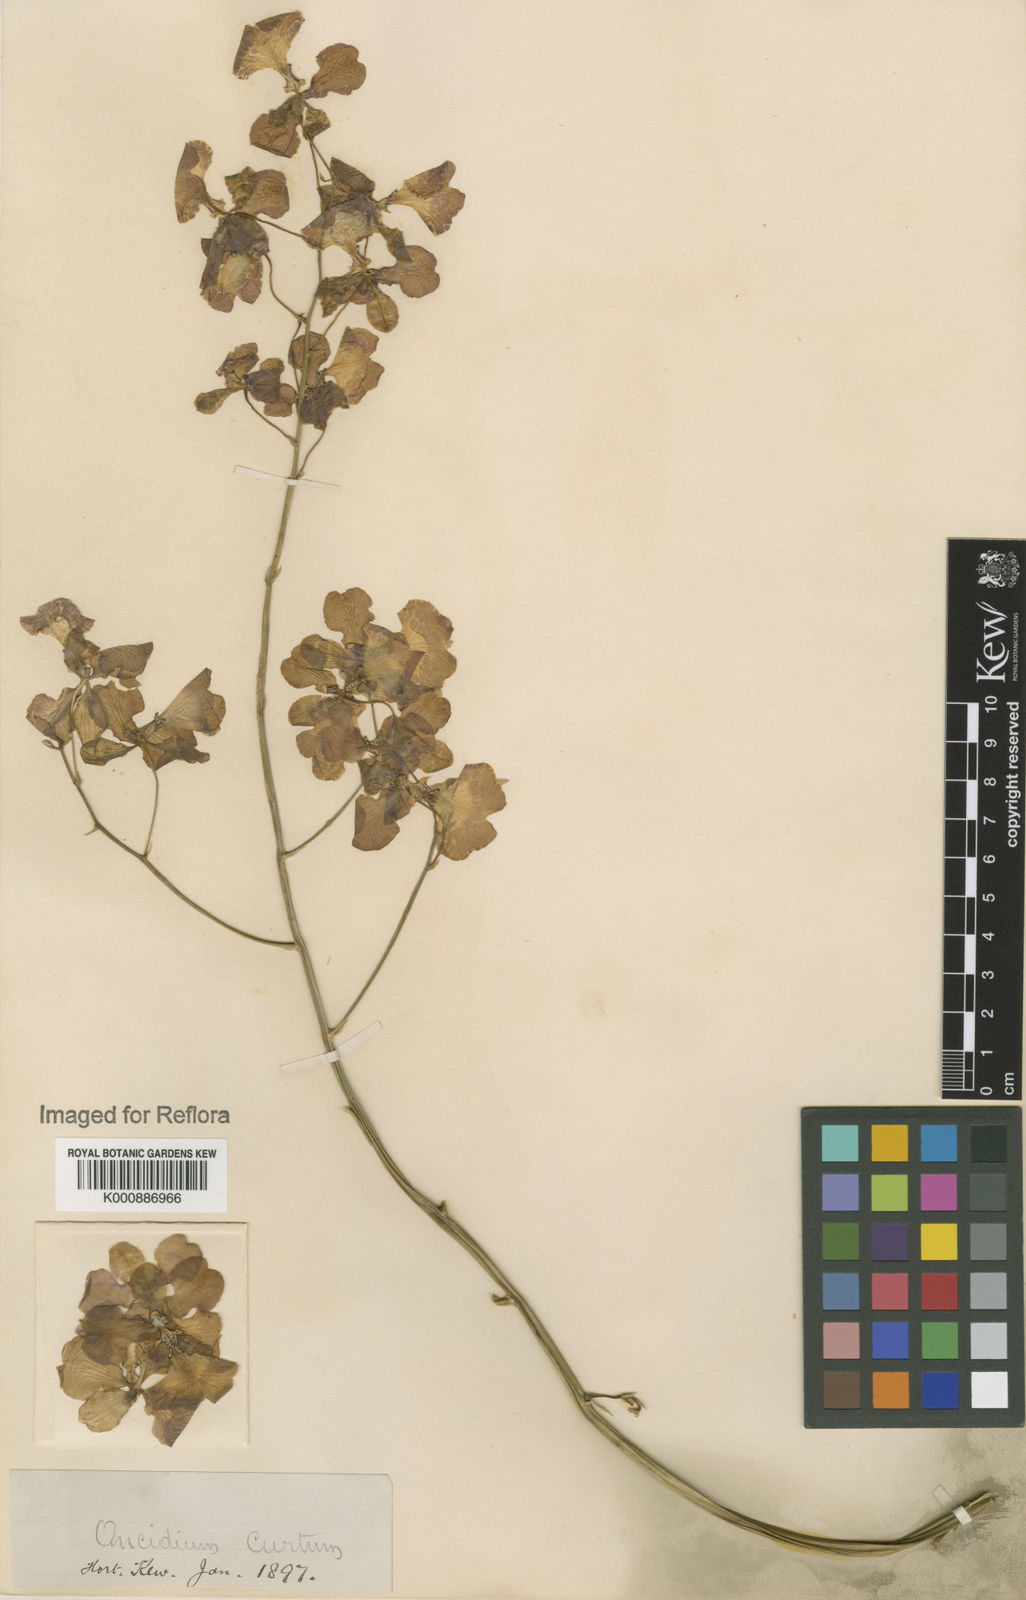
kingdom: Plantae
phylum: Tracheophyta
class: Liliopsida
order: Asparagales
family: Orchidaceae
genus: Gomesa
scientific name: Gomesa gardneri
